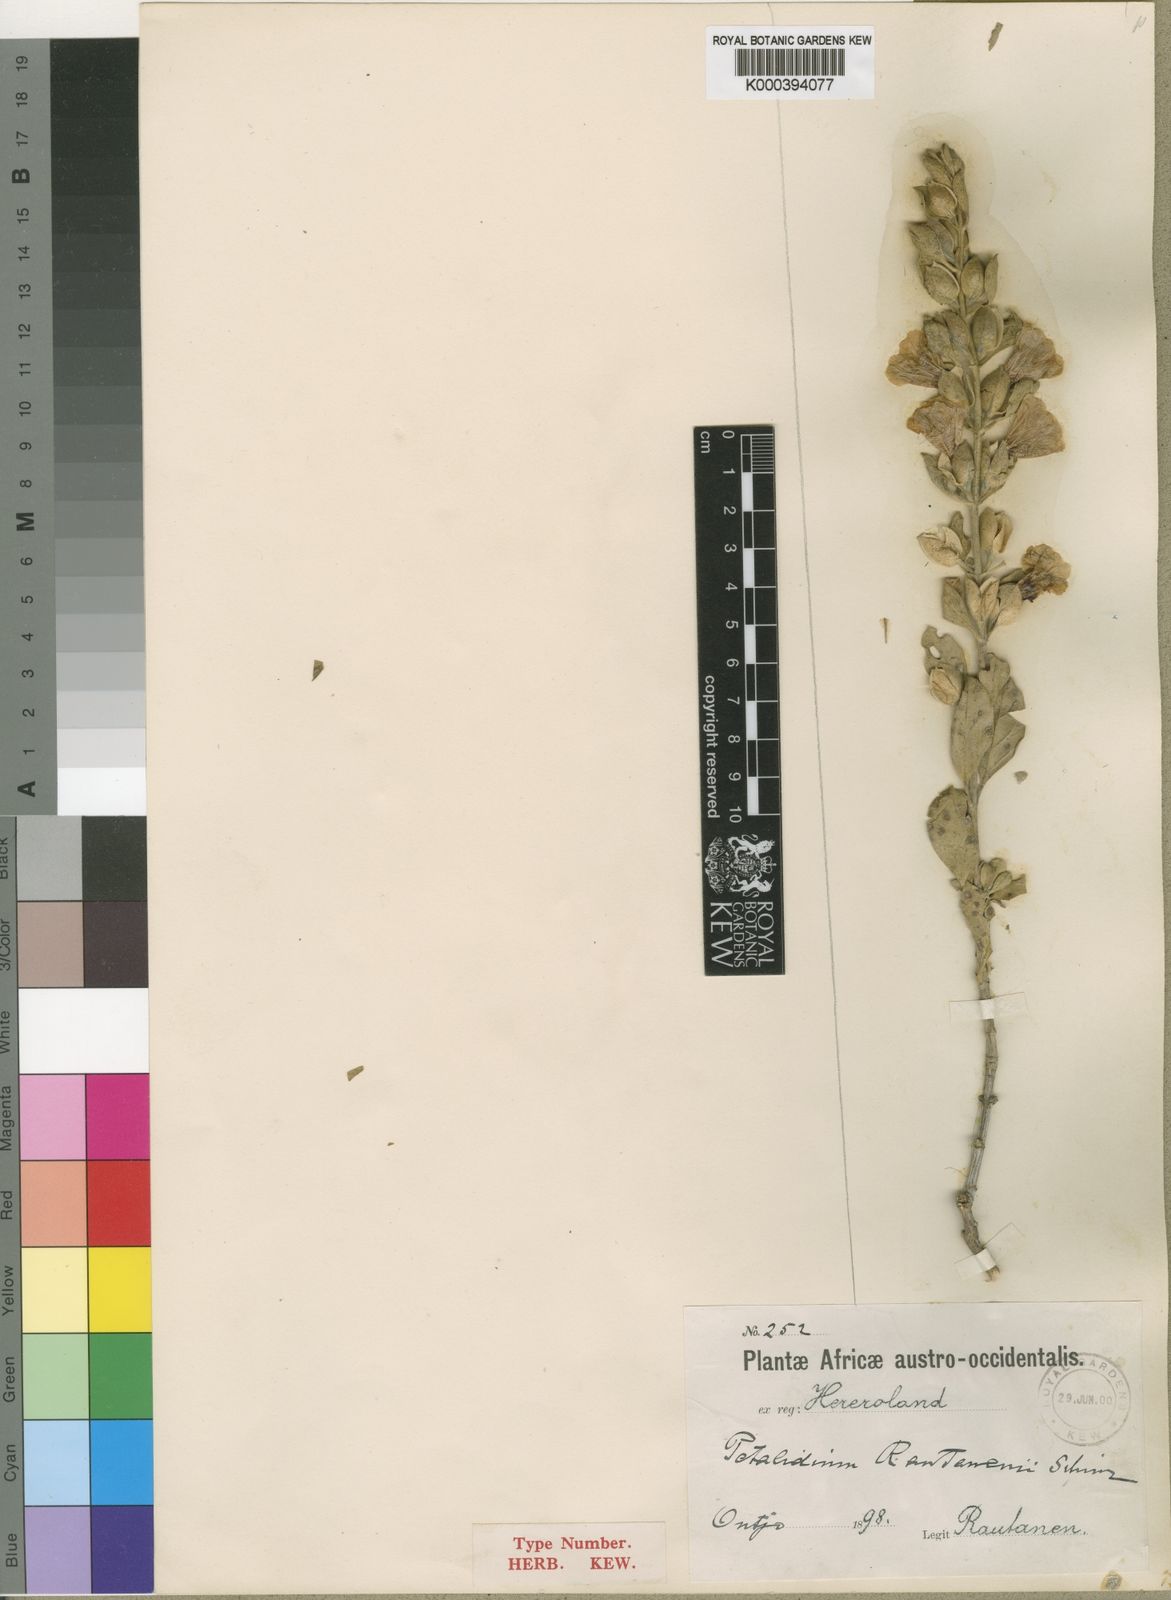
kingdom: Plantae
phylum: Tracheophyta
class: Magnoliopsida
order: Lamiales
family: Acanthaceae
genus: Petalidium
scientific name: Petalidium rautanenii
